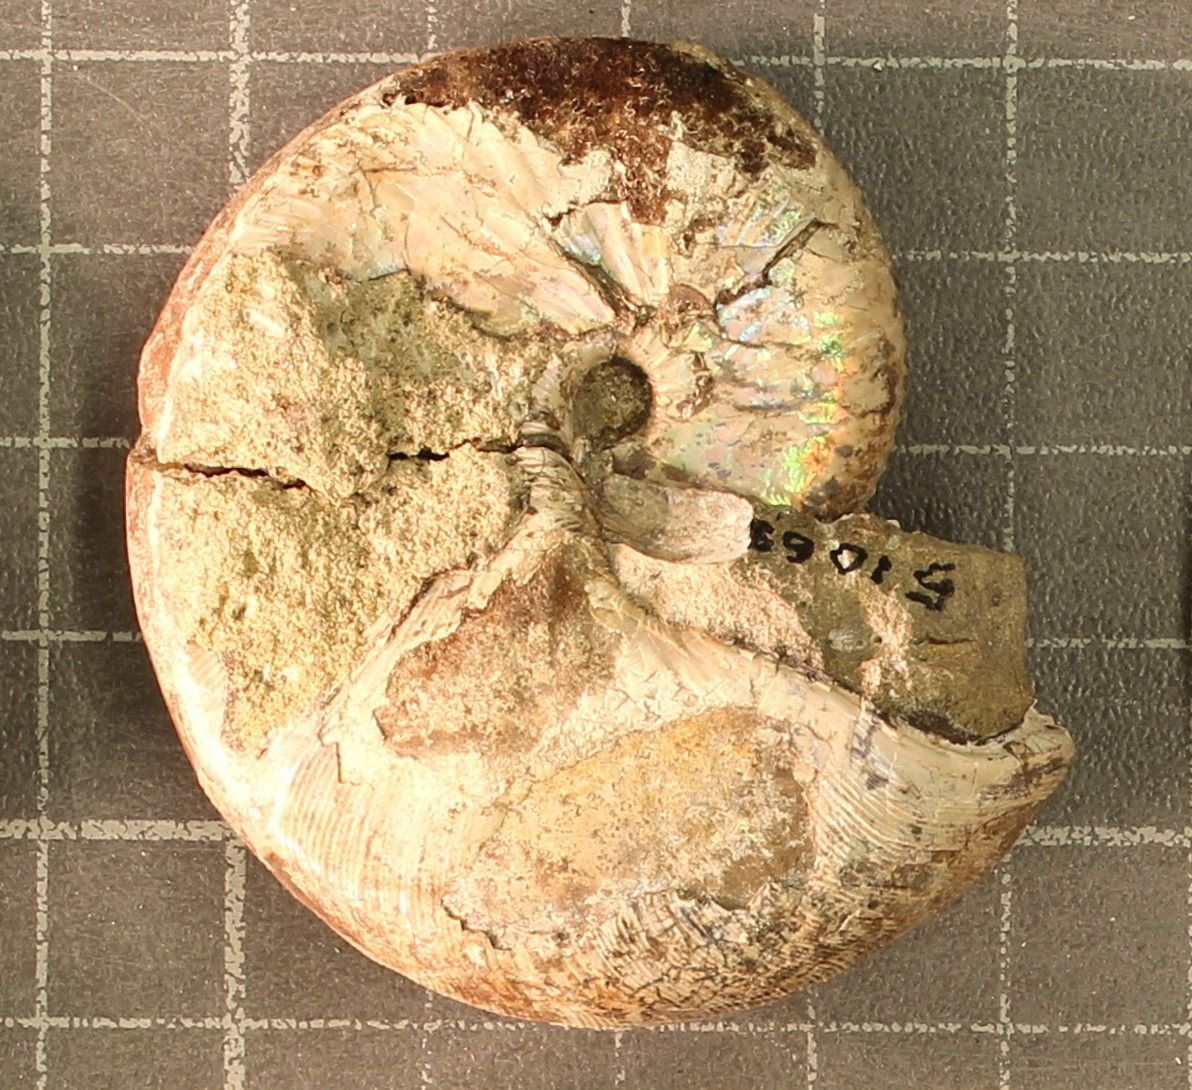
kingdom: Animalia
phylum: Mollusca
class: Cephalopoda
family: Scaphitidae
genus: Hoploscaphites
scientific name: Hoploscaphites nicolletii
